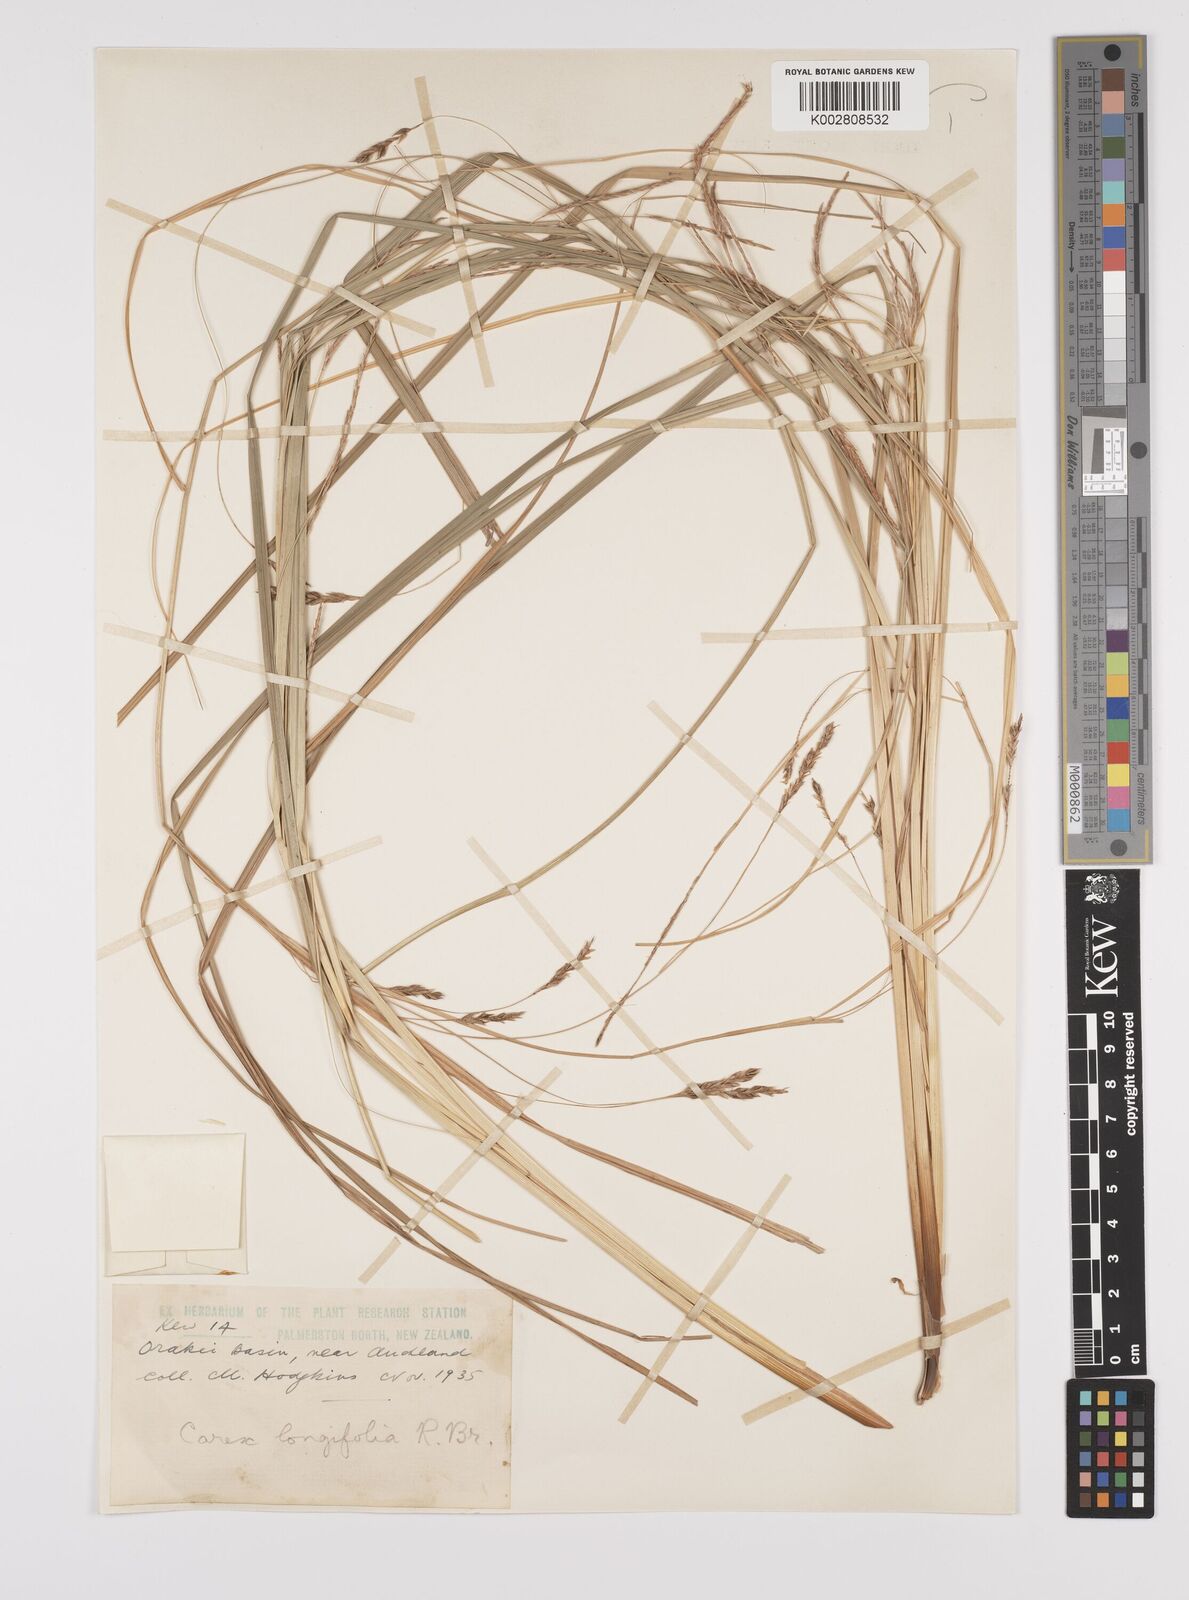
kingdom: Plantae
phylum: Tracheophyta
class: Liliopsida
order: Poales
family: Cyperaceae
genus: Carex
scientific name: Carex
